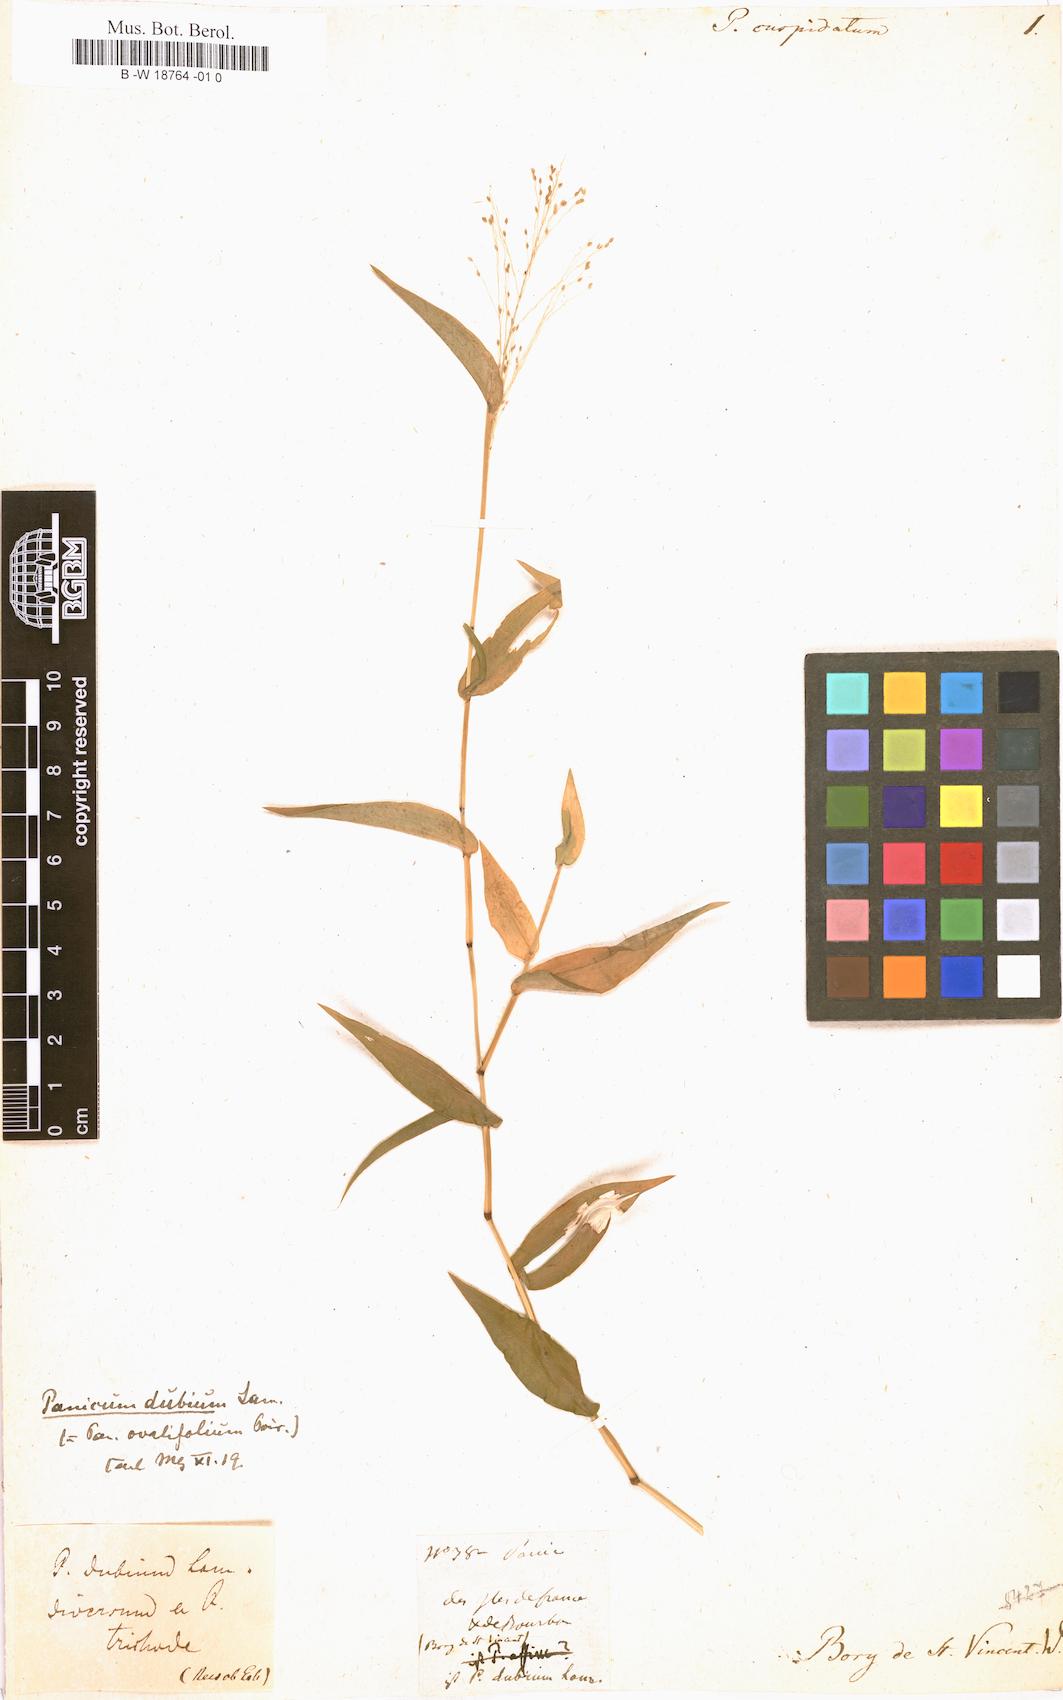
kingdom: Plantae
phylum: Tracheophyta
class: Liliopsida
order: Poales
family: Poaceae
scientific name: Poaceae
